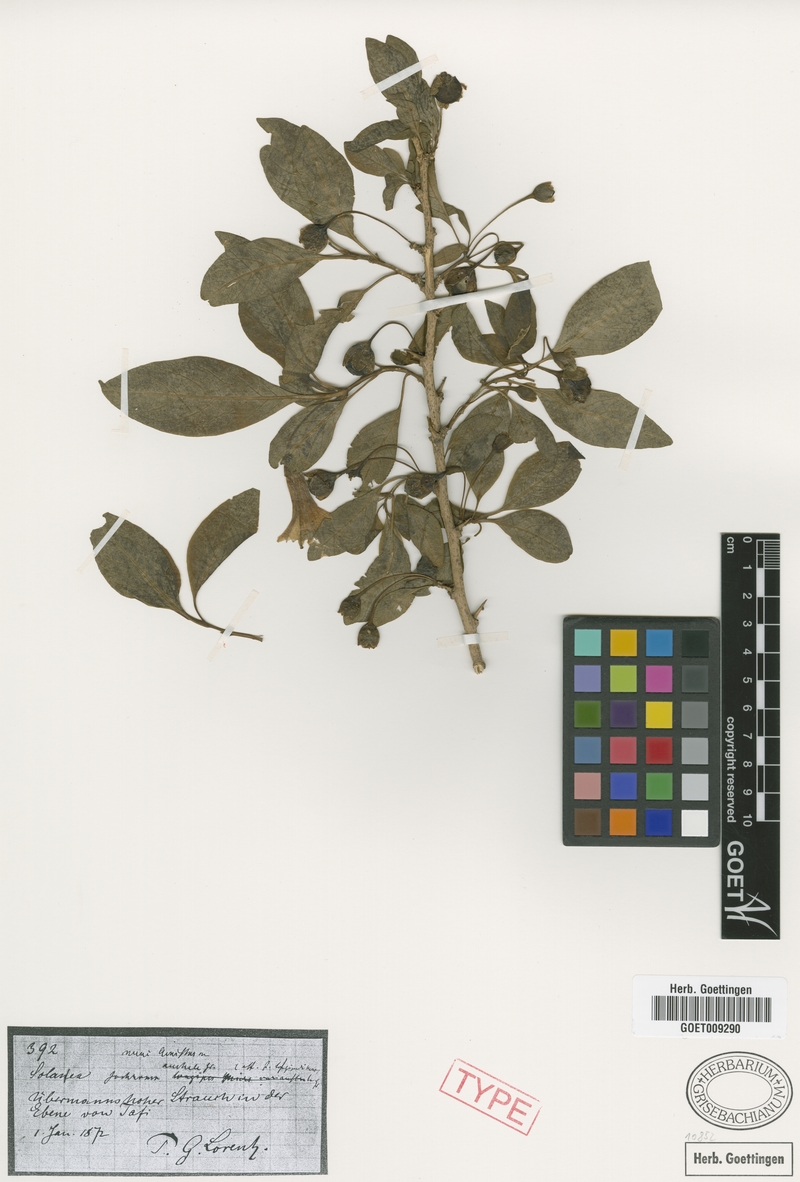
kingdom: Plantae
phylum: Tracheophyta
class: Magnoliopsida
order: Solanales
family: Solanaceae
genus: Eriolarynx
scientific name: Eriolarynx australis
